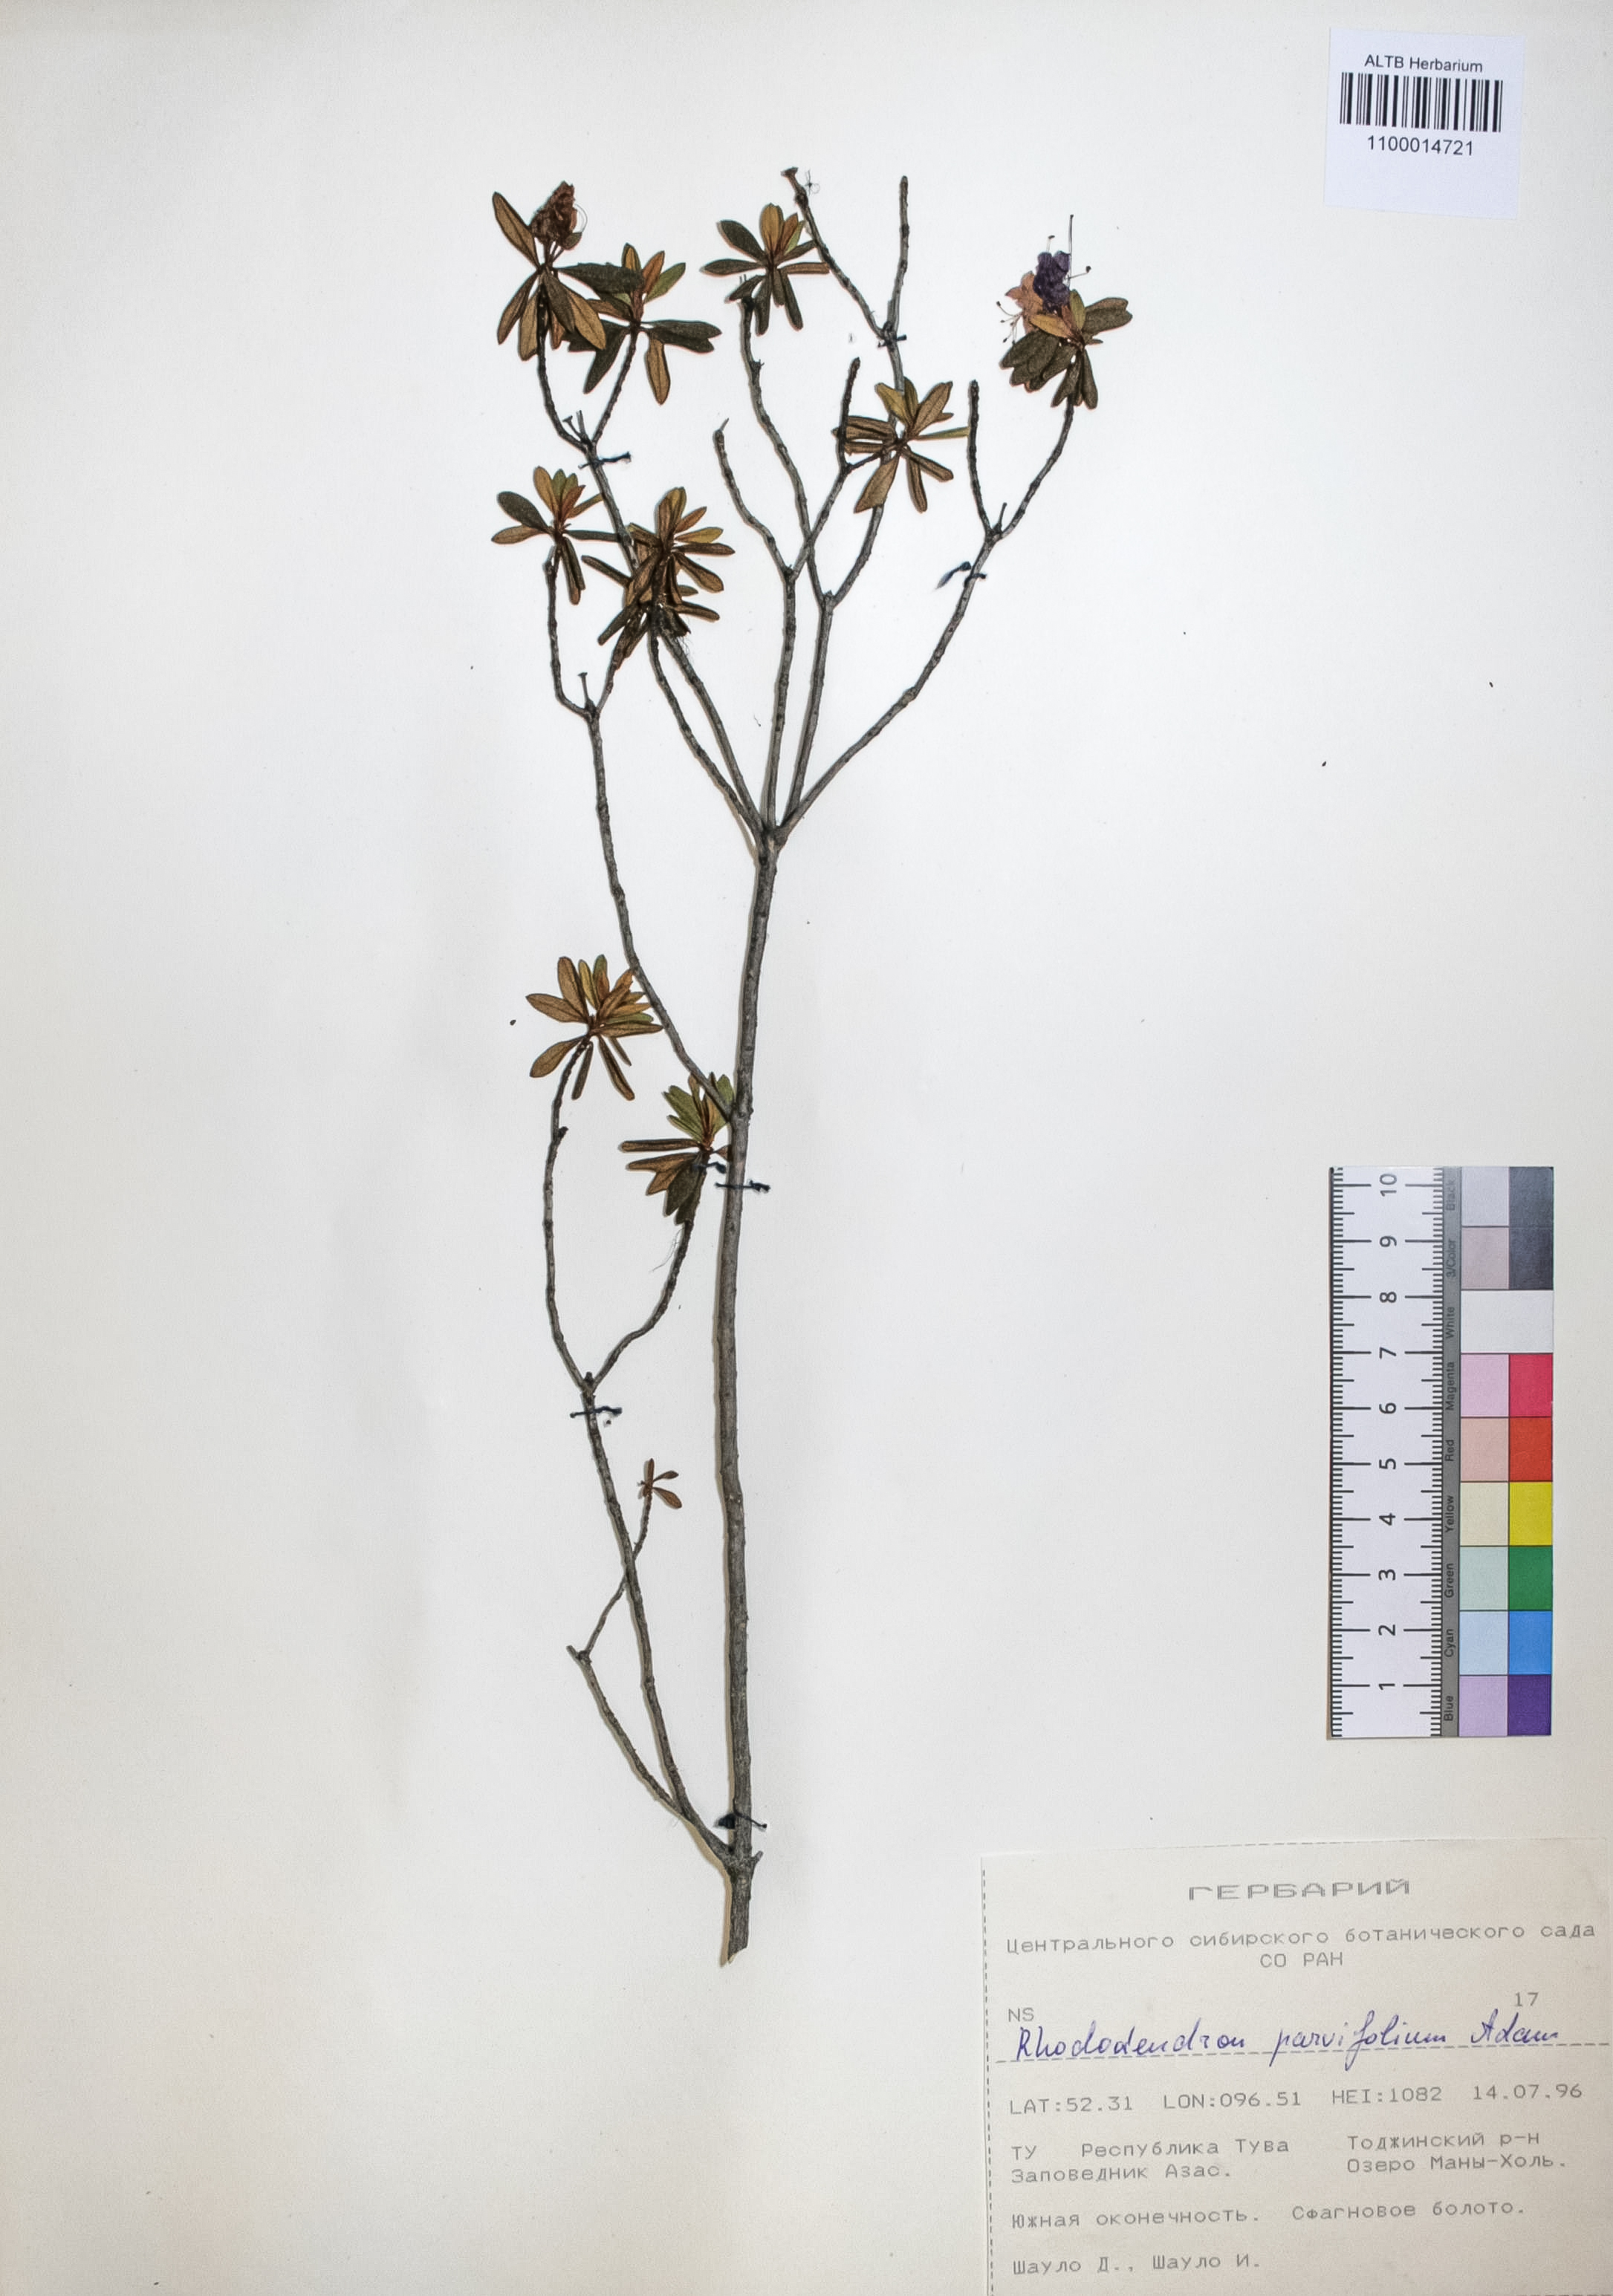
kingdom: Plantae
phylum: Tracheophyta
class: Magnoliopsida
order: Ericales
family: Ericaceae
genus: Rhododendron
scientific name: Rhododendron parvifolium
